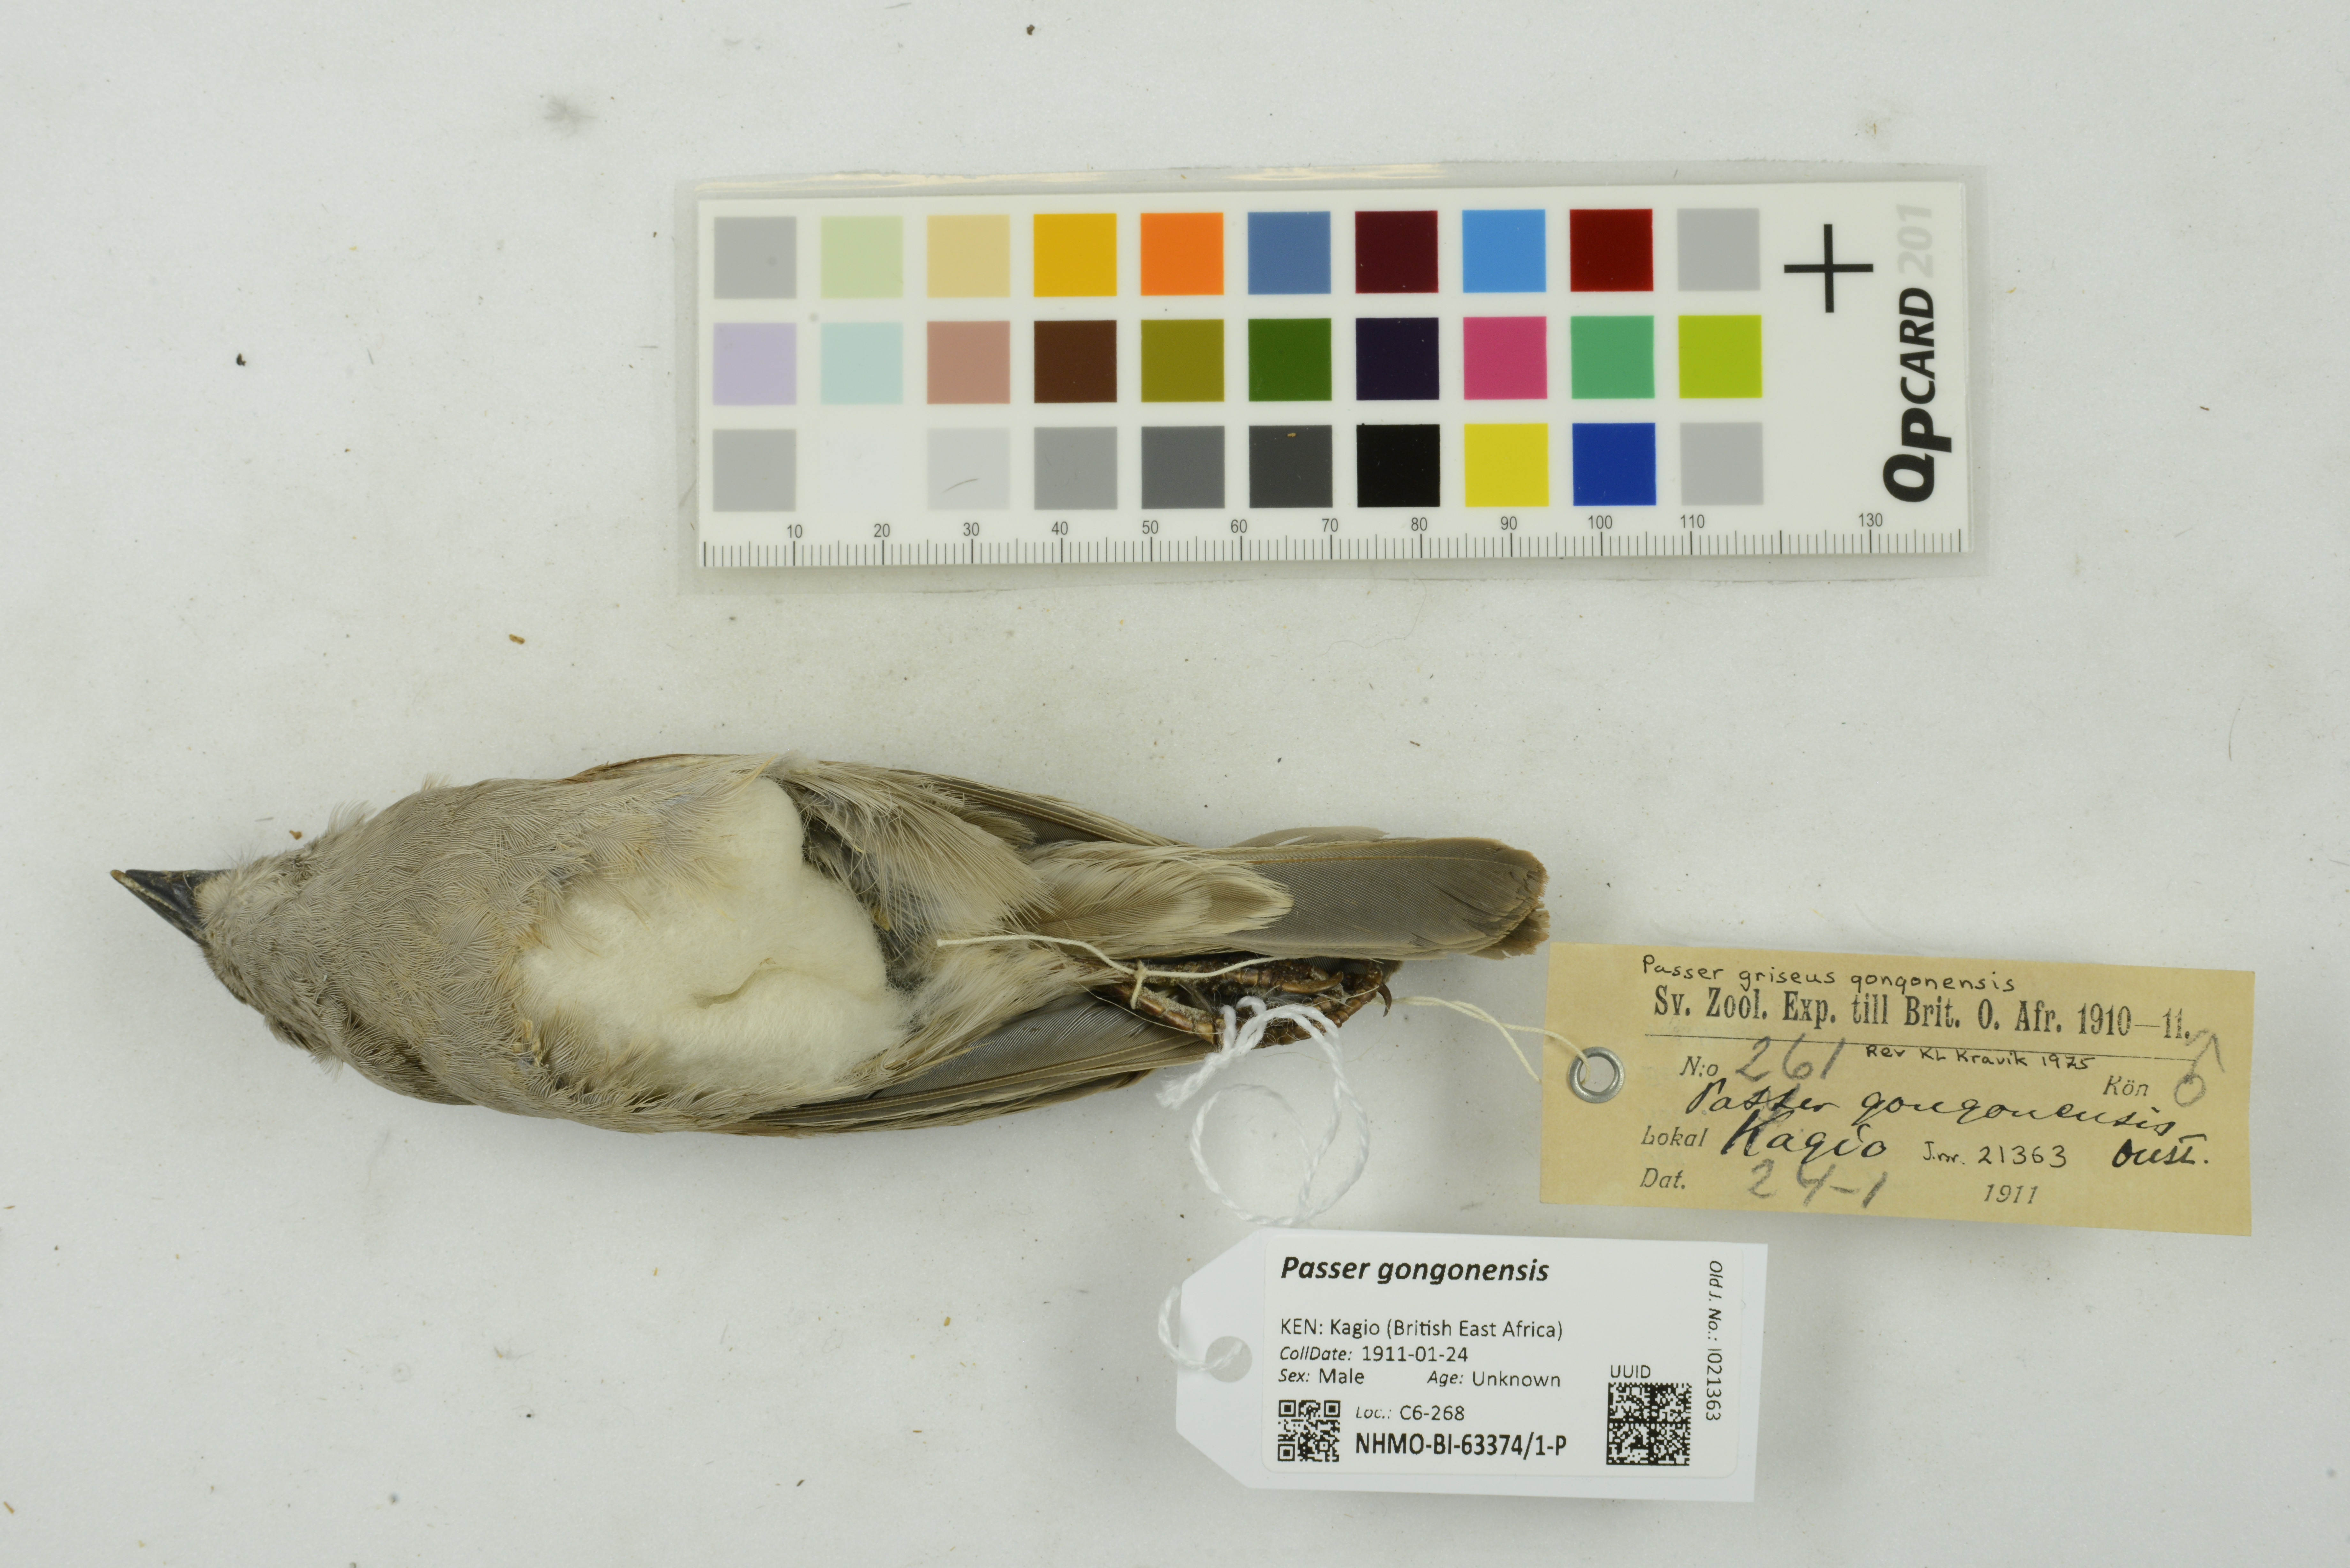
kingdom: Animalia
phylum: Chordata
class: Aves
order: Passeriformes
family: Passeridae
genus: Passer
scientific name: Passer gongonensis
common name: Parrot-billed sparrow
